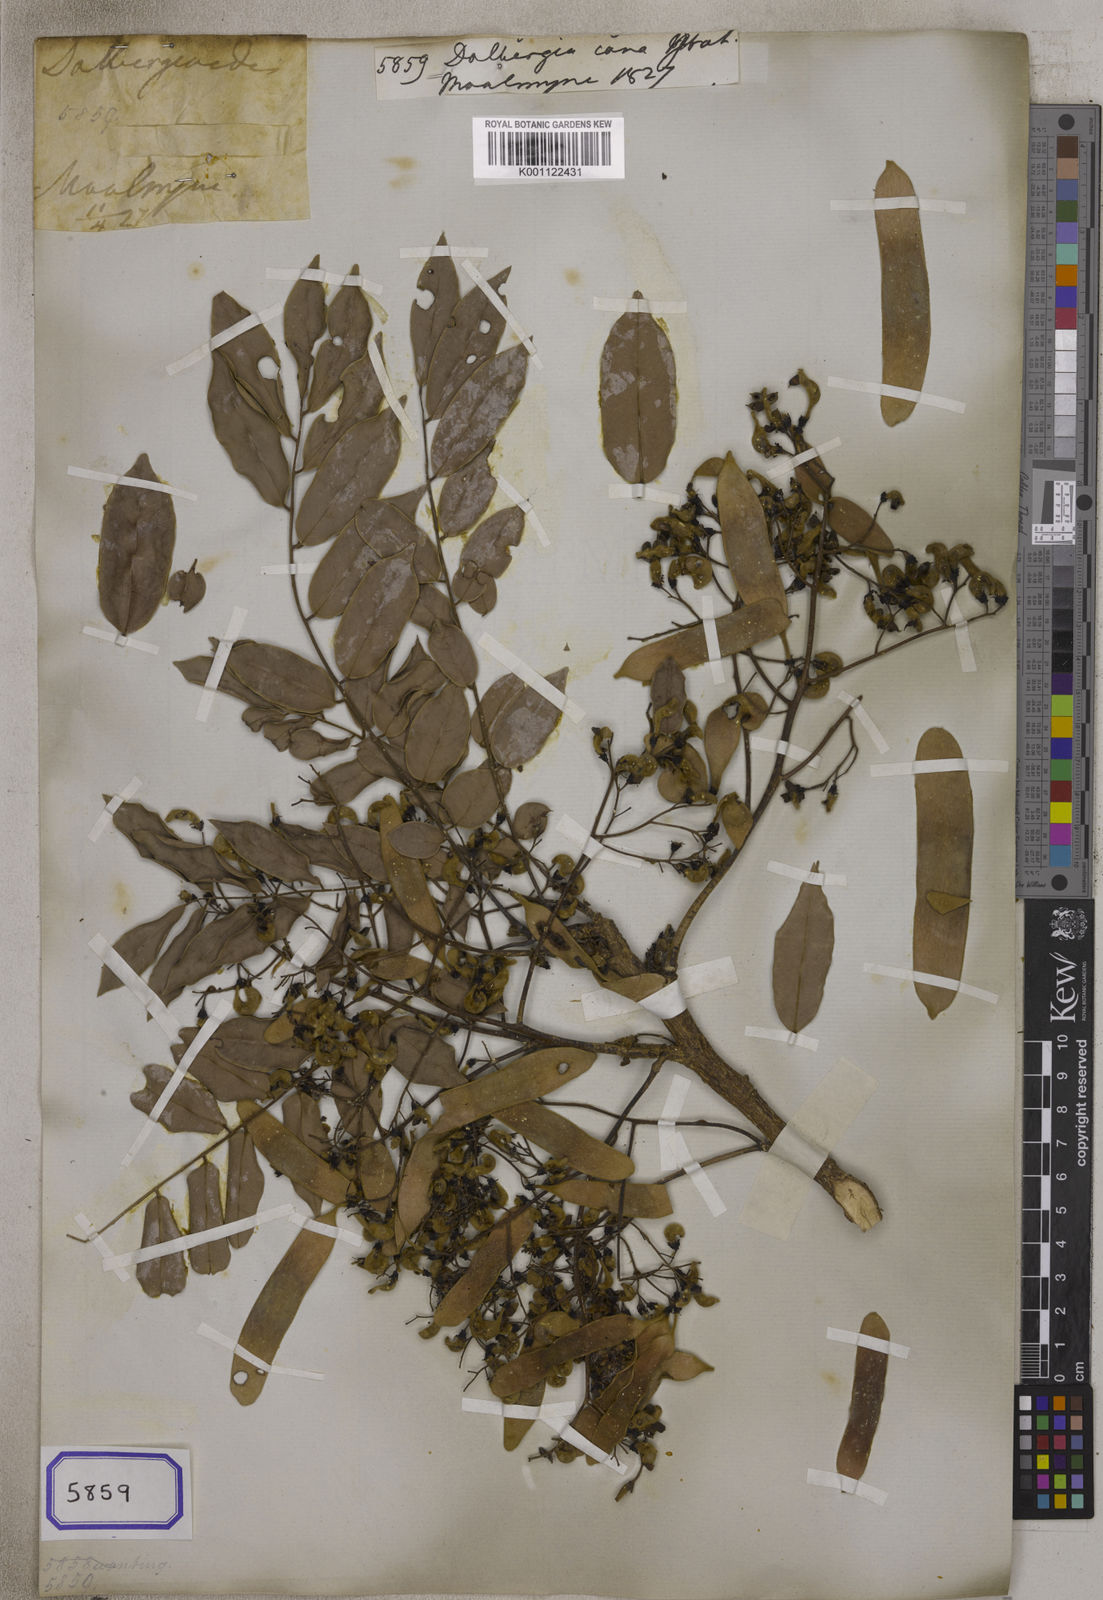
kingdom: Plantae
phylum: Tracheophyta
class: Magnoliopsida
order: Fabales
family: Fabaceae
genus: Dalbergia
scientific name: Dalbergia
